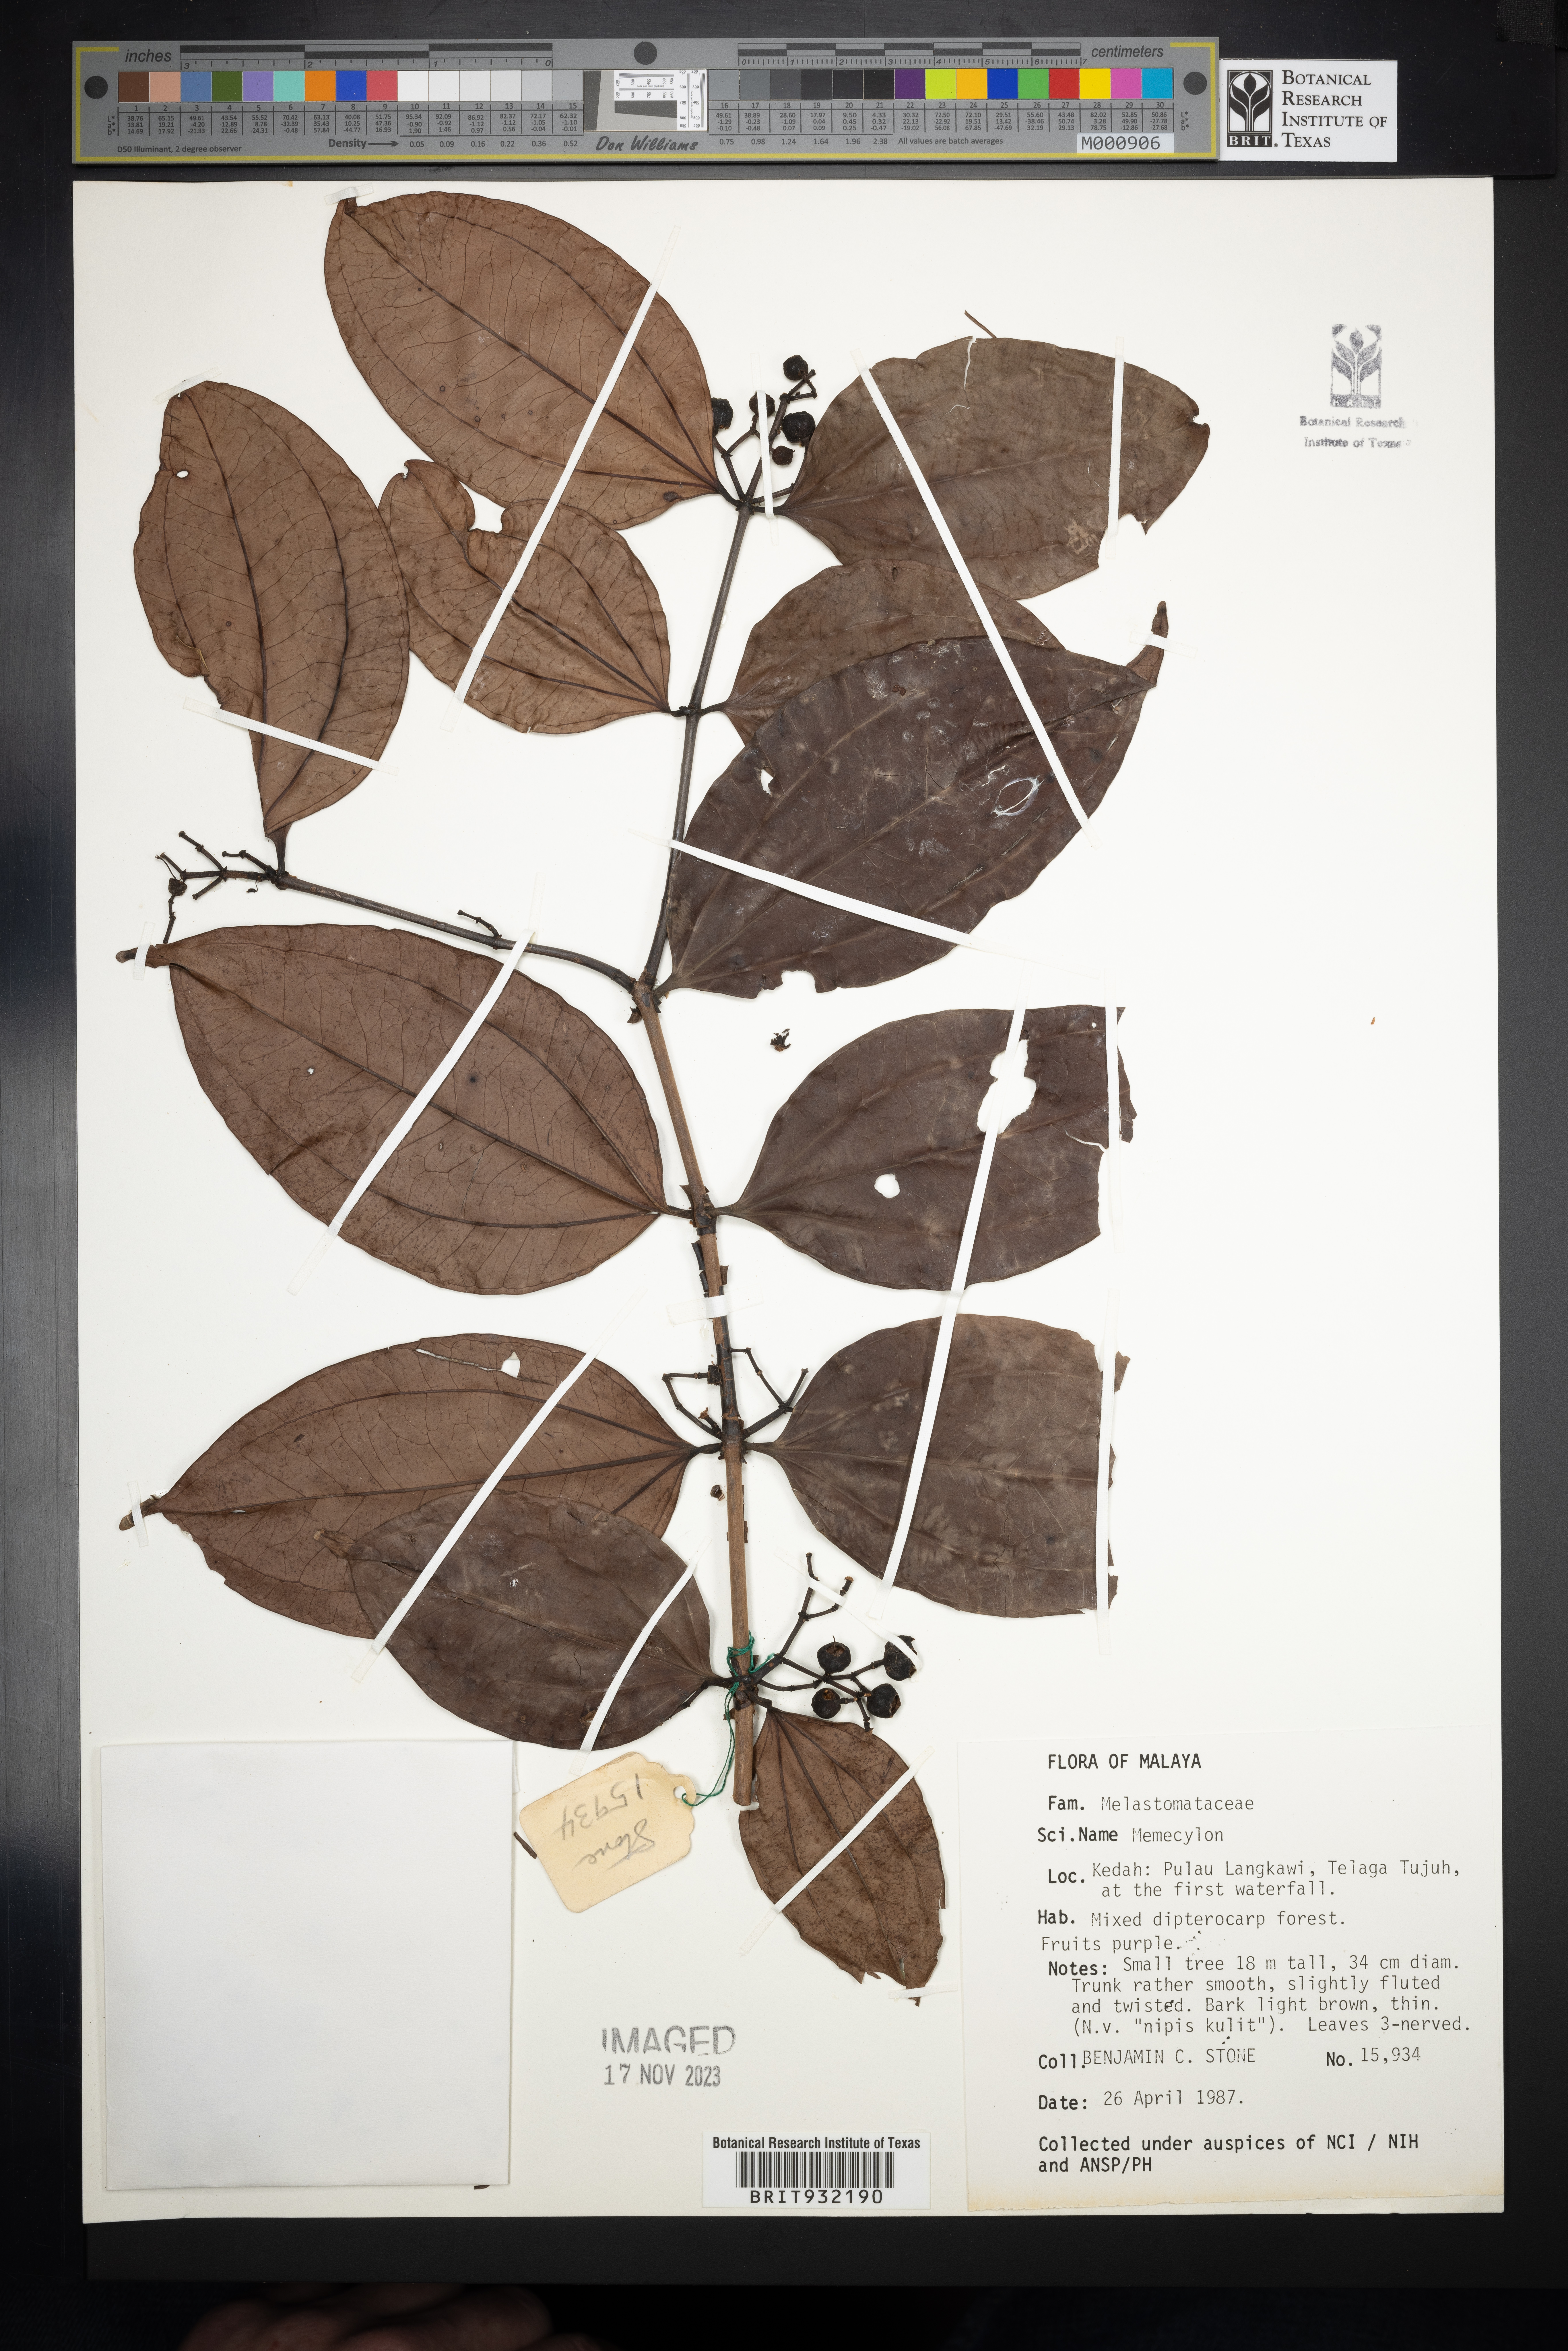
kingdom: Plantae
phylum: Tracheophyta
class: Magnoliopsida
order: Myrtales
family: Melastomataceae
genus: Memecylon
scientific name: Memecylon
